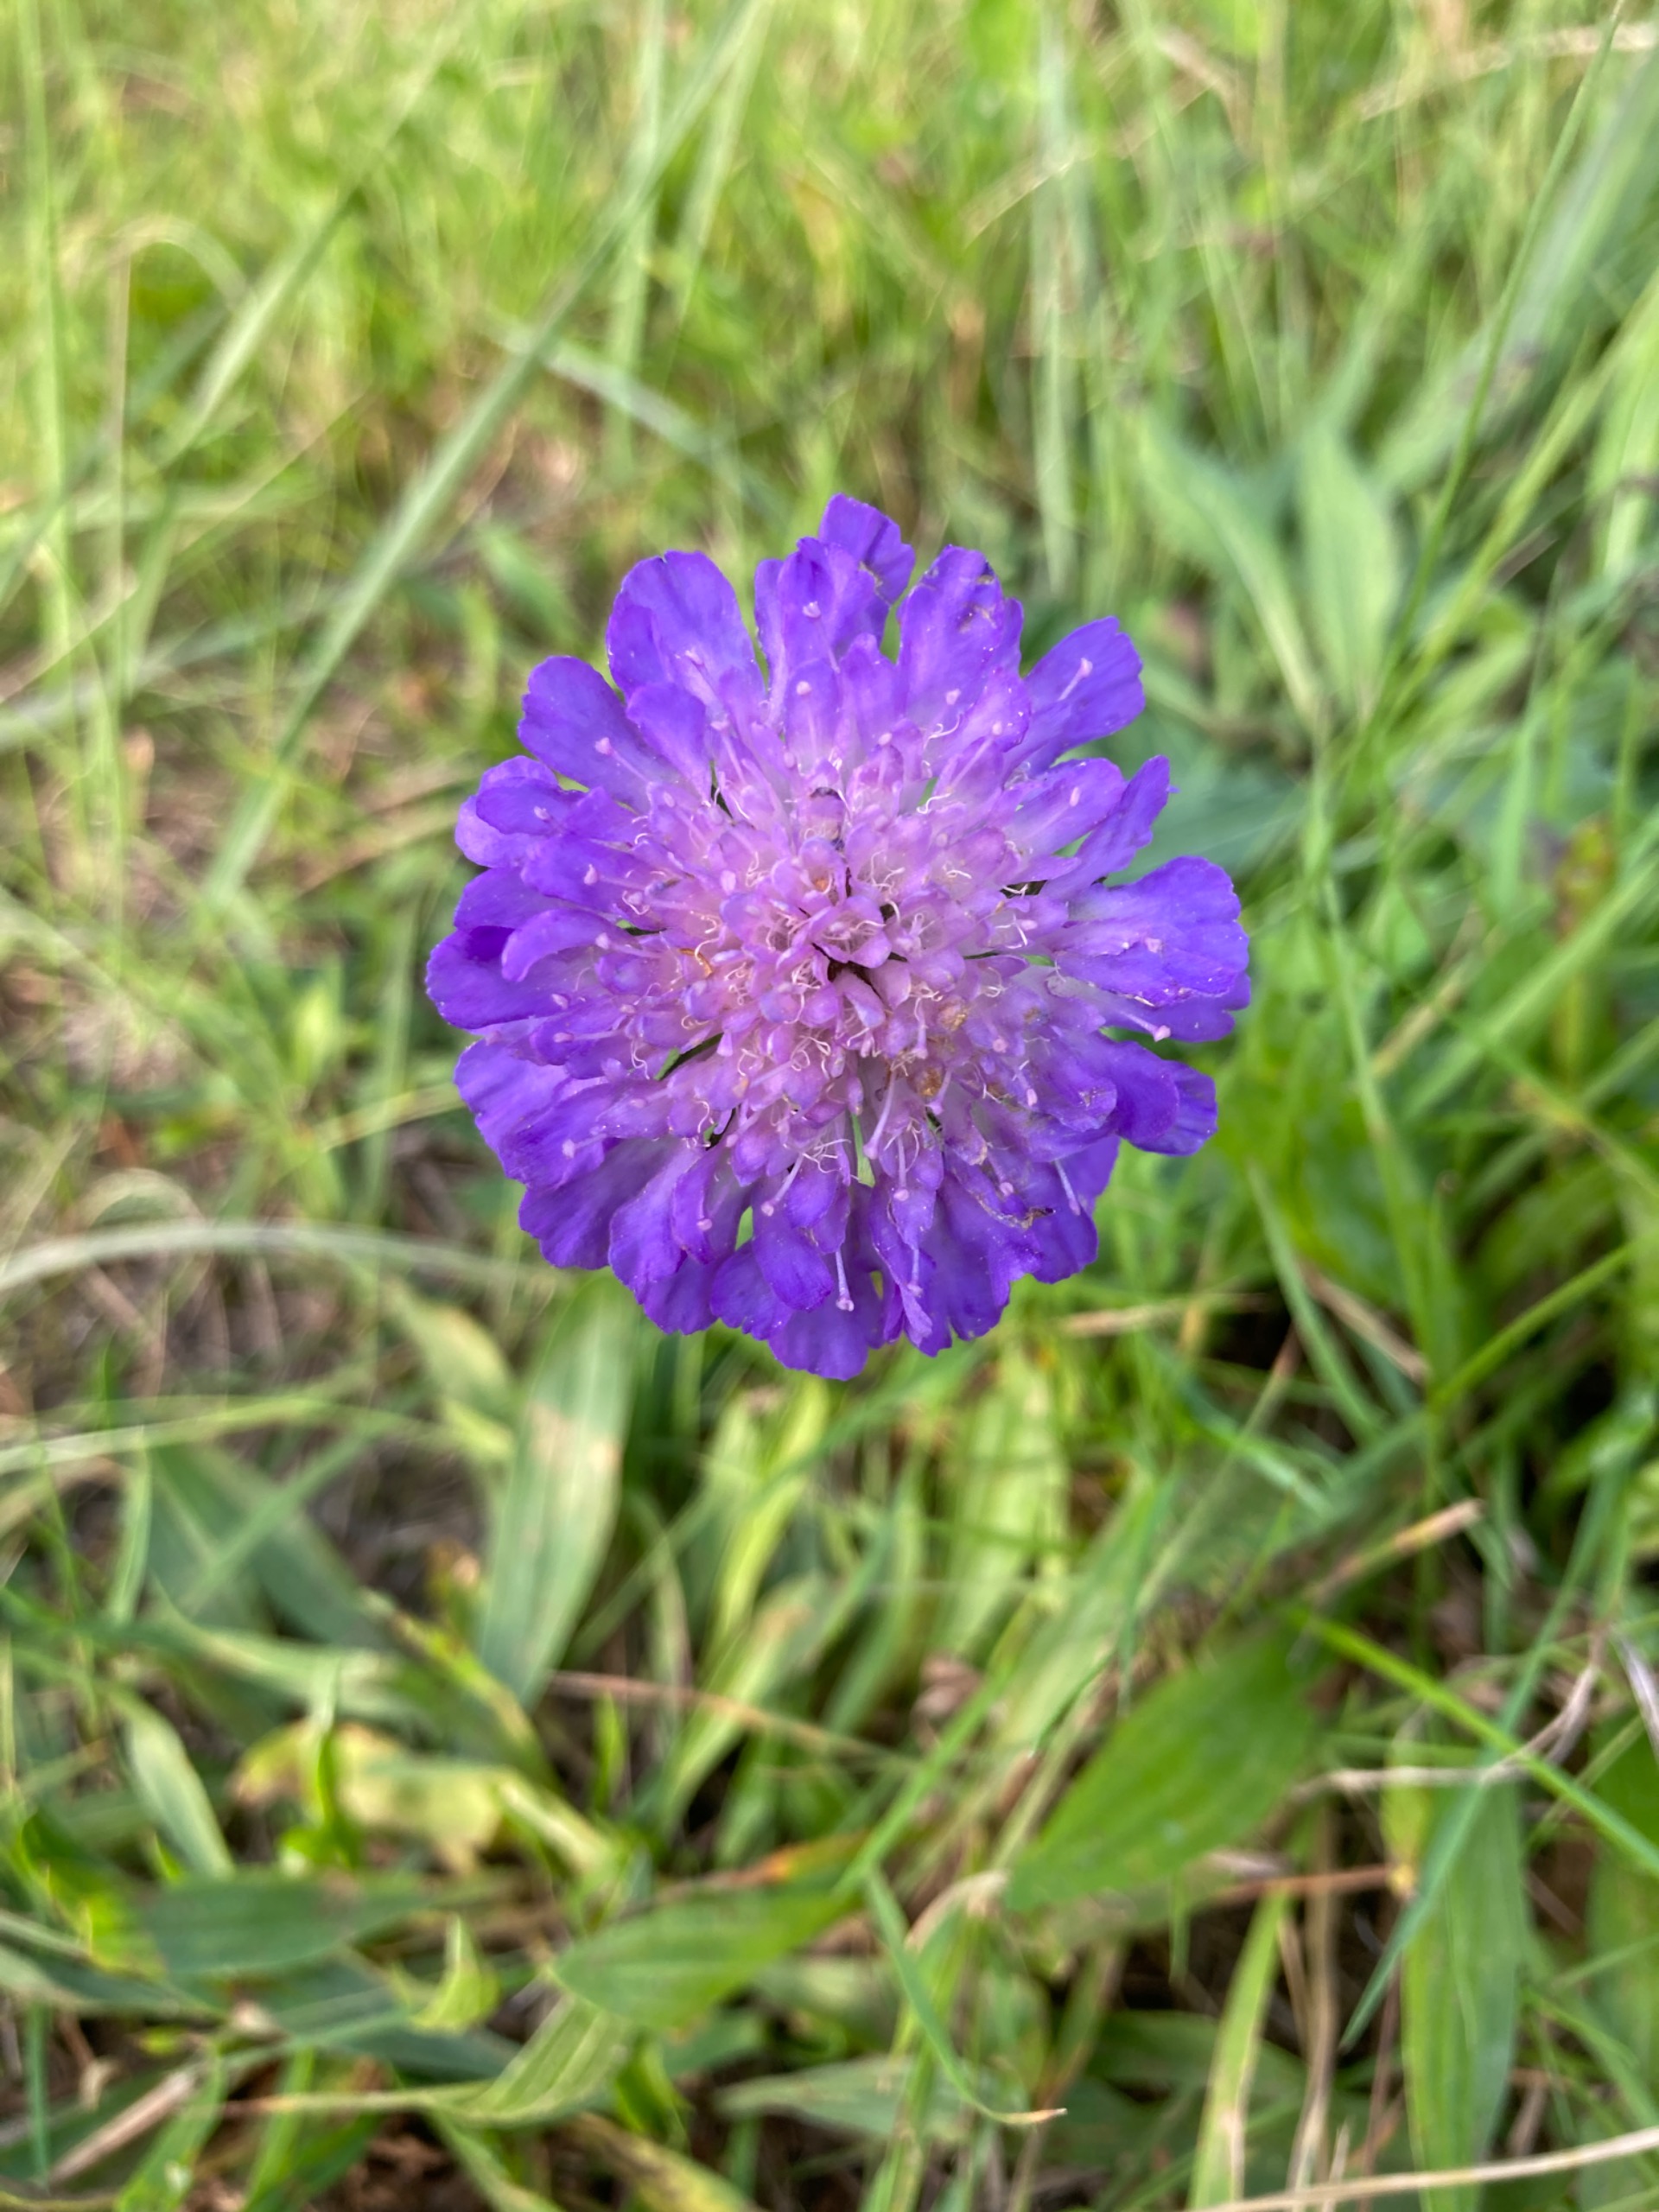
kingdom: Plantae
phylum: Tracheophyta
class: Magnoliopsida
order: Dipsacales
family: Caprifoliaceae
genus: Knautia
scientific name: Knautia arvensis
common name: Blåhat
